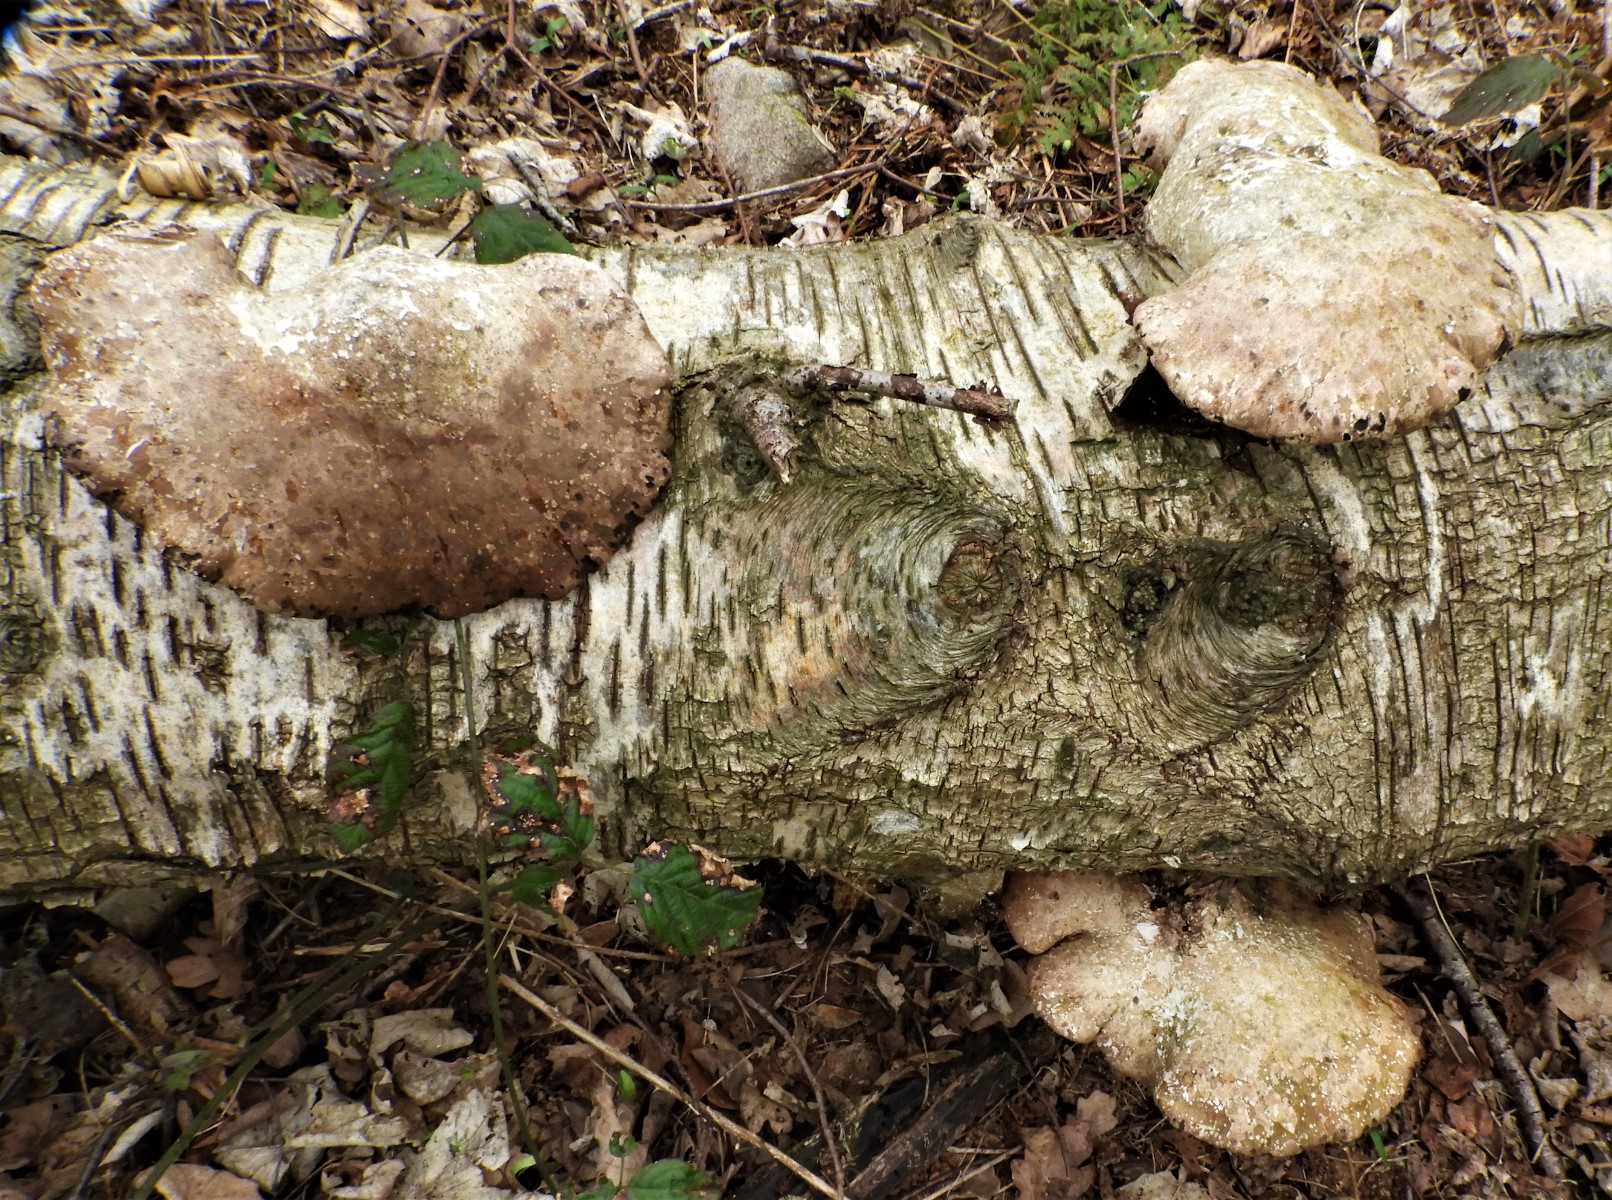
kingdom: Fungi
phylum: Basidiomycota
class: Agaricomycetes
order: Polyporales
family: Fomitopsidaceae
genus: Fomitopsis
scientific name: Fomitopsis betulina
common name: birkeporesvamp
